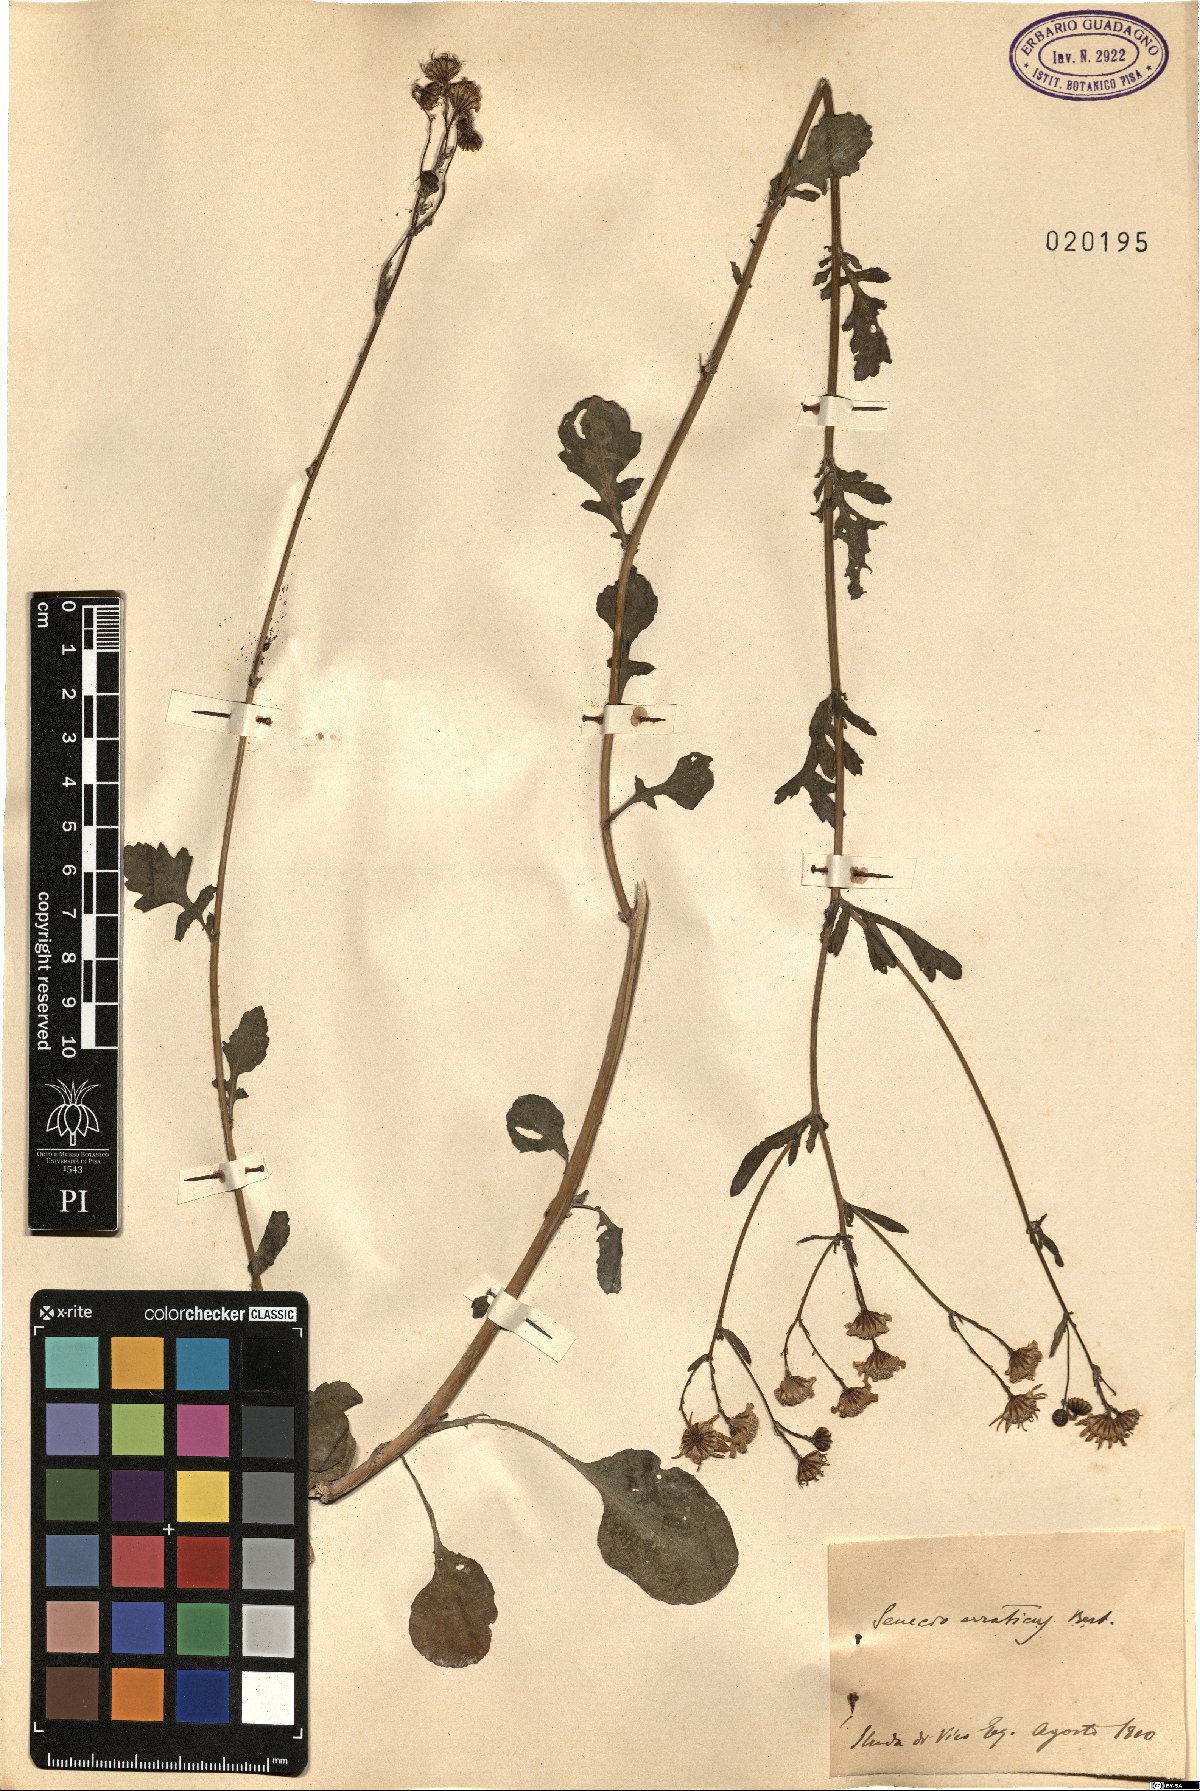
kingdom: Plantae
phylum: Tracheophyta
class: Magnoliopsida
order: Asterales
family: Asteraceae
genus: Jacobaea
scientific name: Jacobaea erratica
